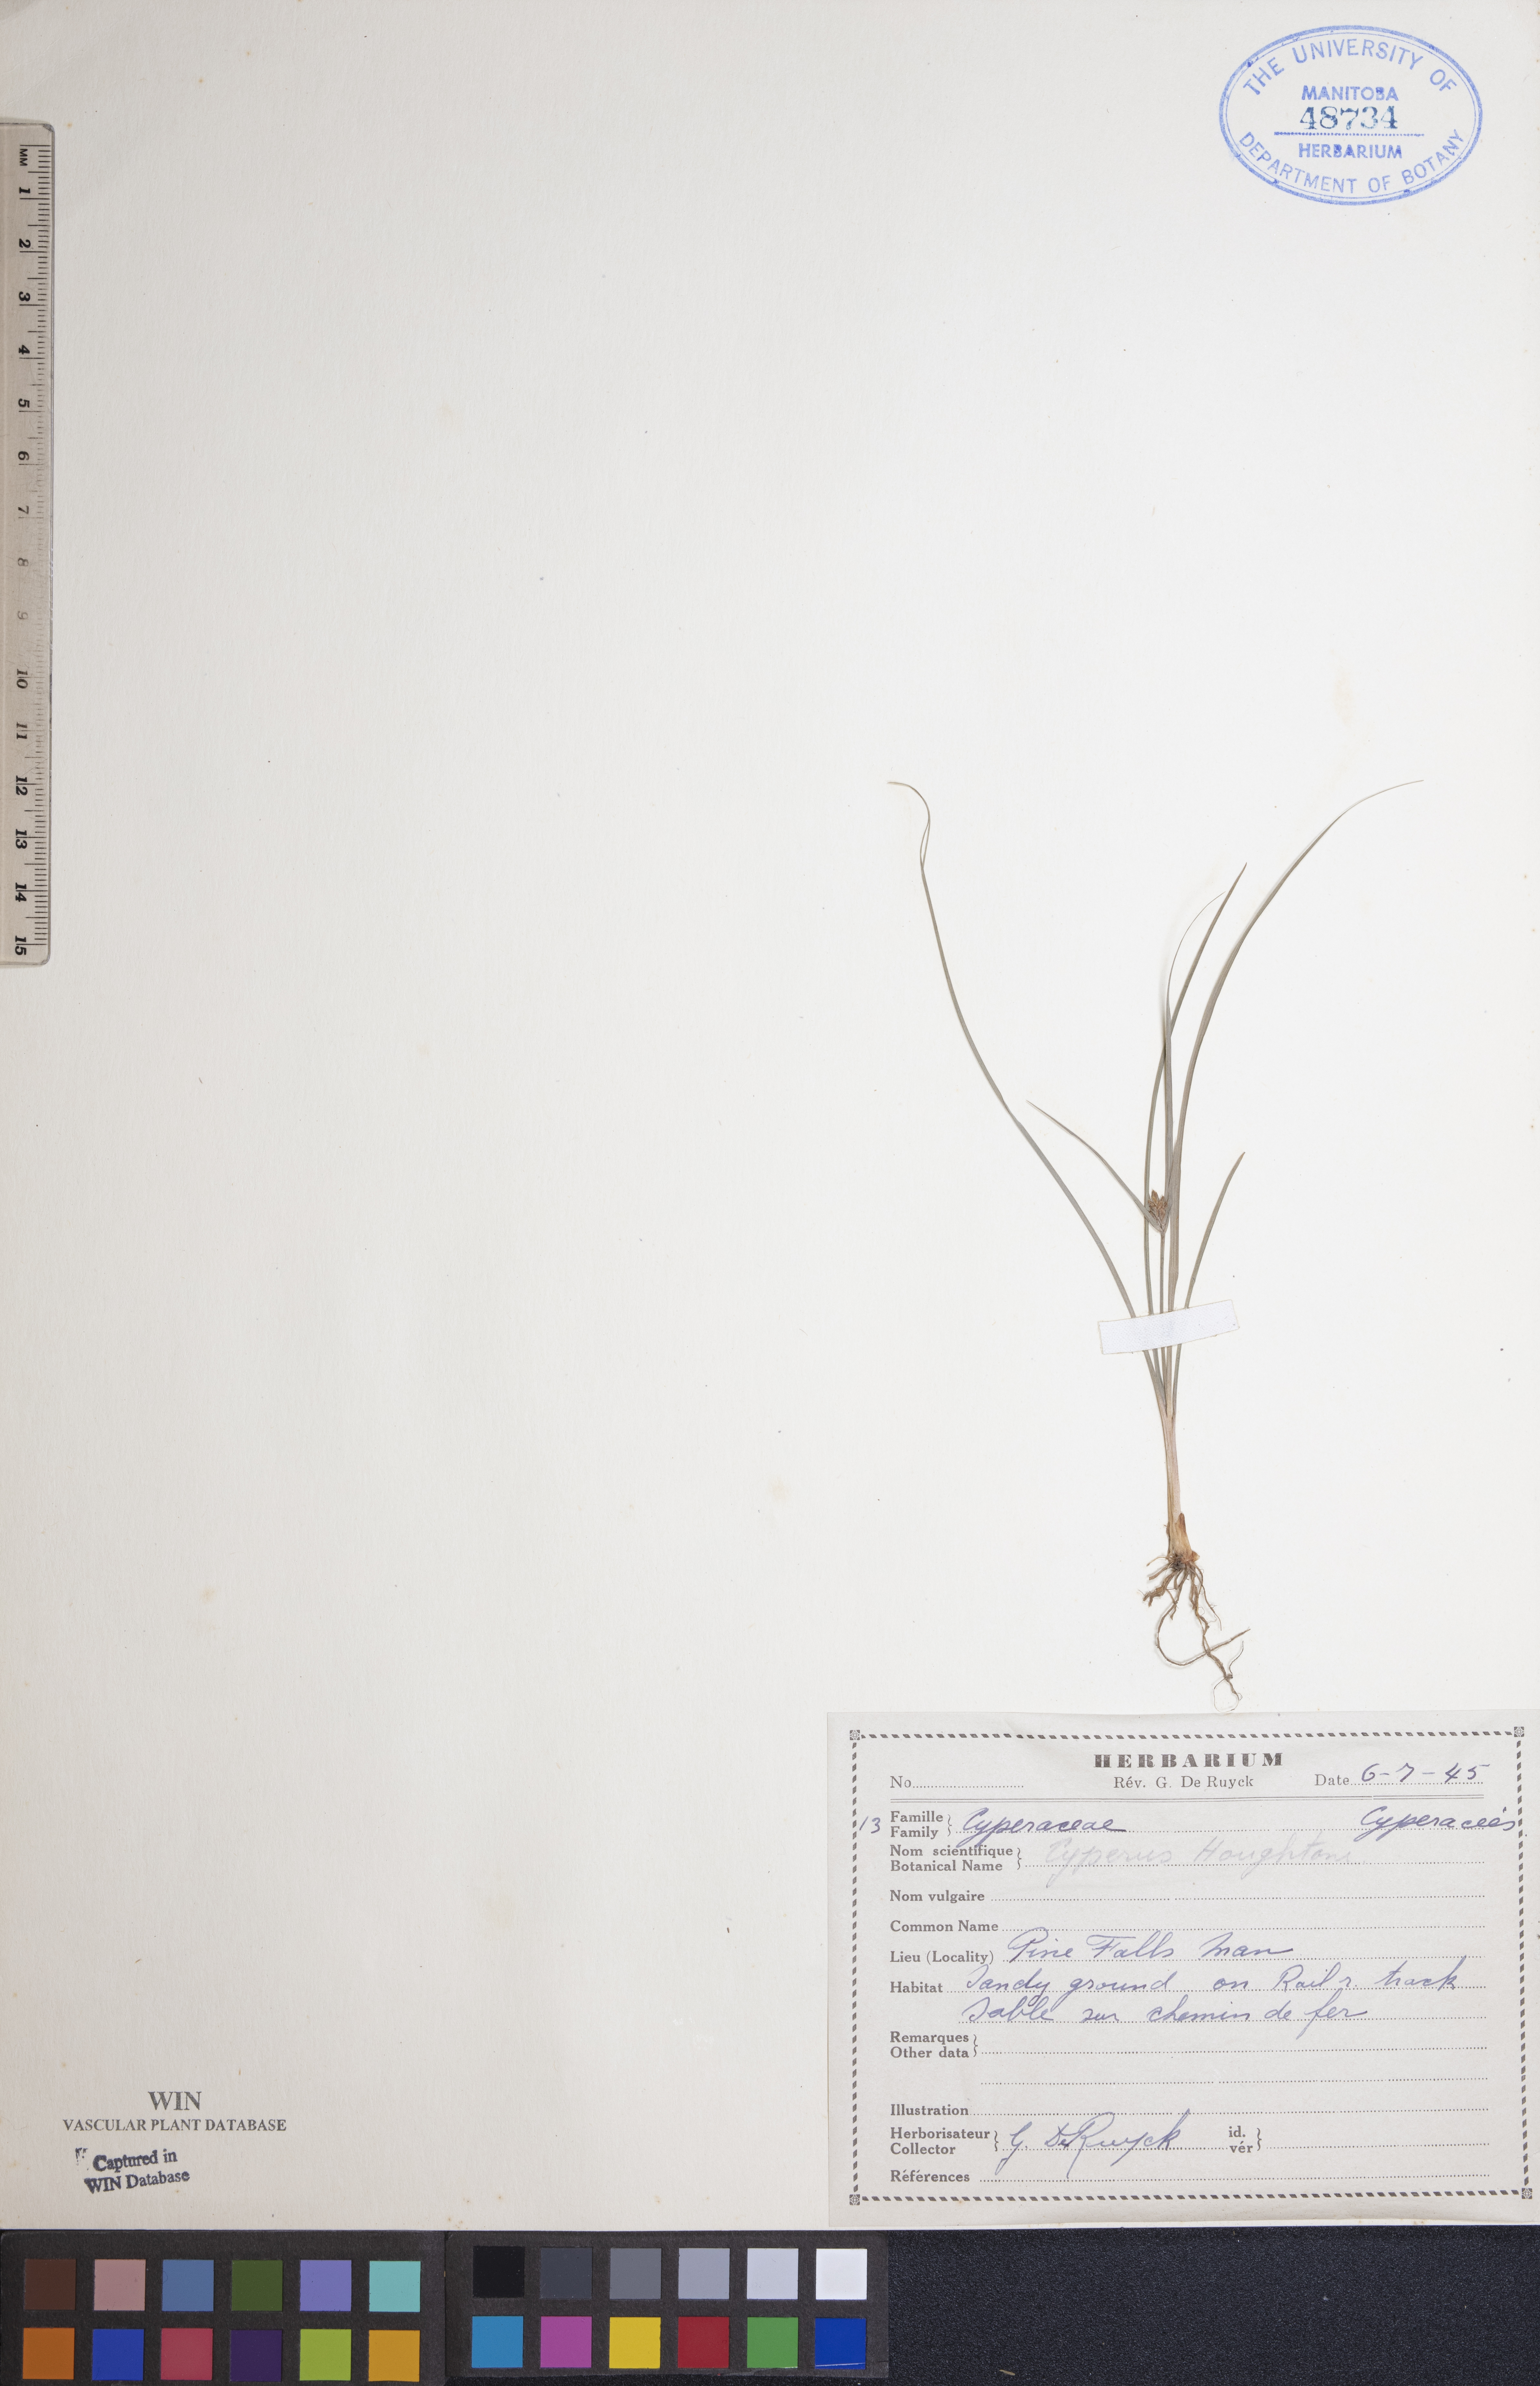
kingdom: Plantae
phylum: Tracheophyta
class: Liliopsida
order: Poales
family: Cyperaceae
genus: Cyperus
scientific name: Cyperus houghtonii
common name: Houghton's cyperus
